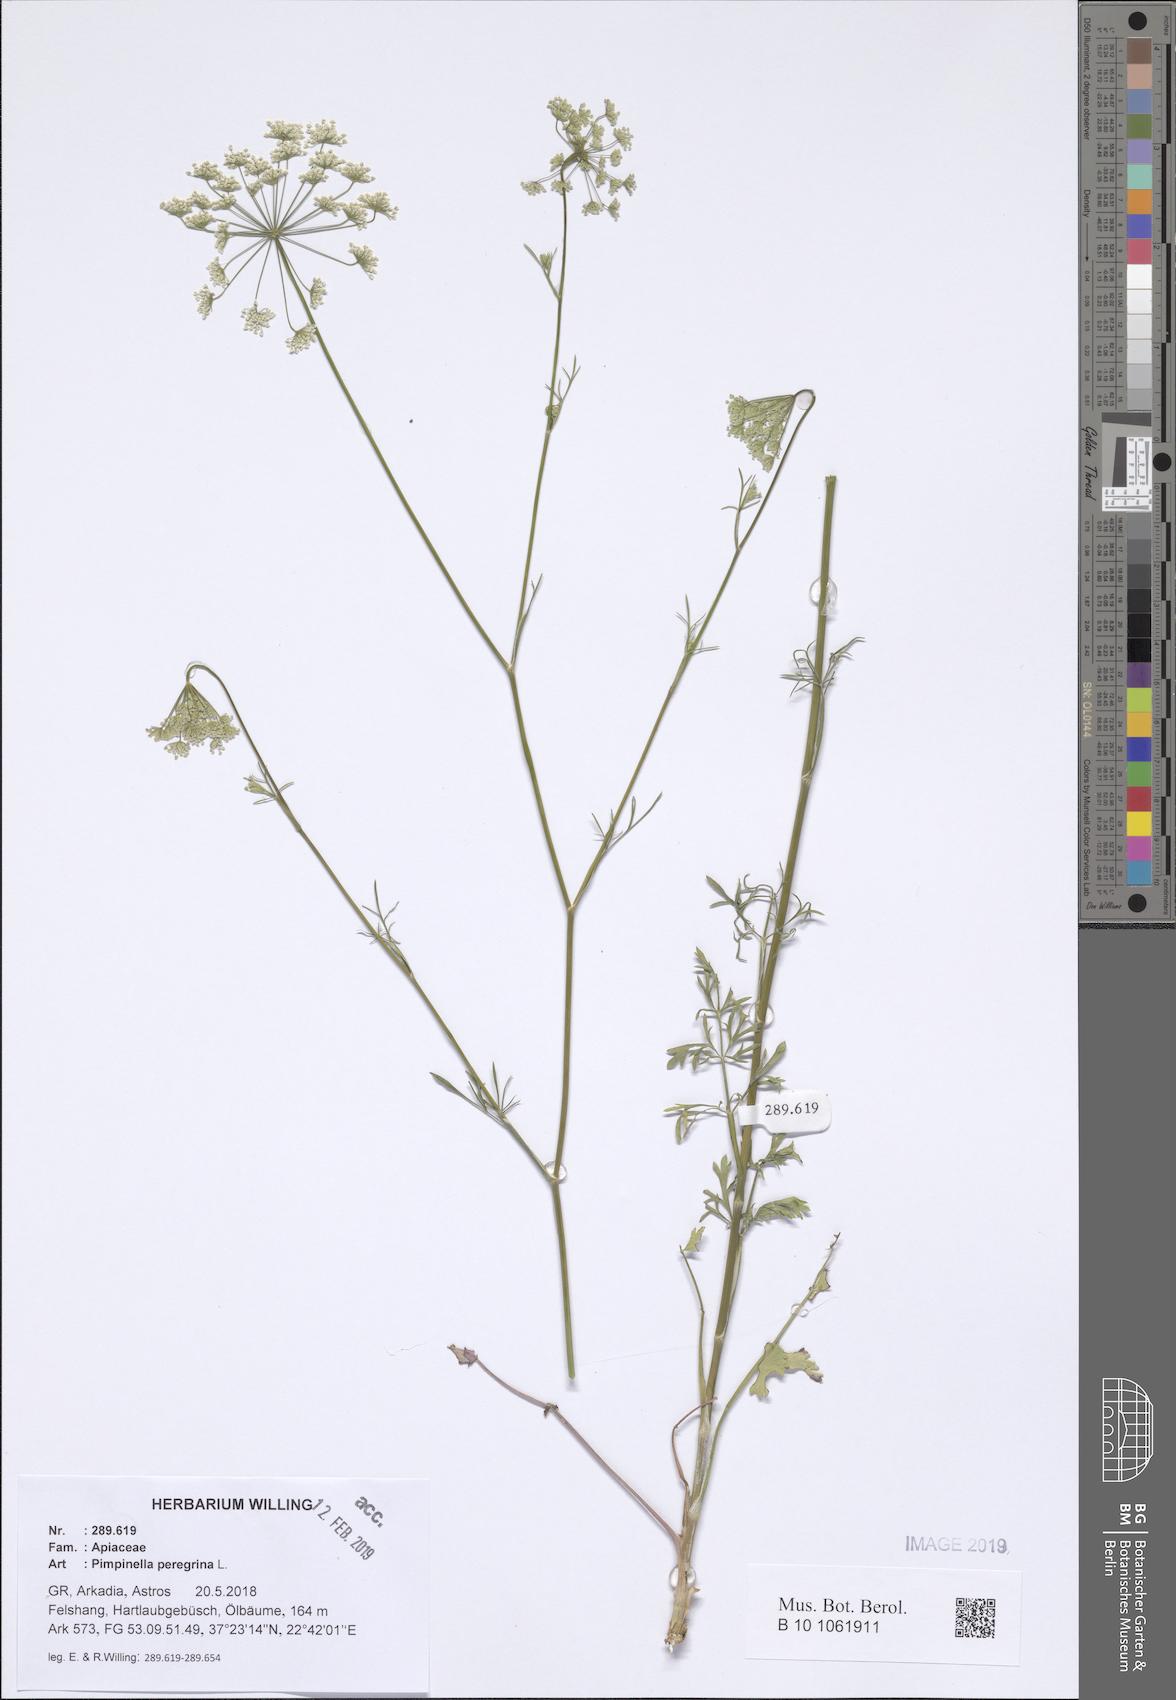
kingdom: Plantae
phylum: Tracheophyta
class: Magnoliopsida
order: Apiales
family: Apiaceae
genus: Pimpinella
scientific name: Pimpinella peregrina
